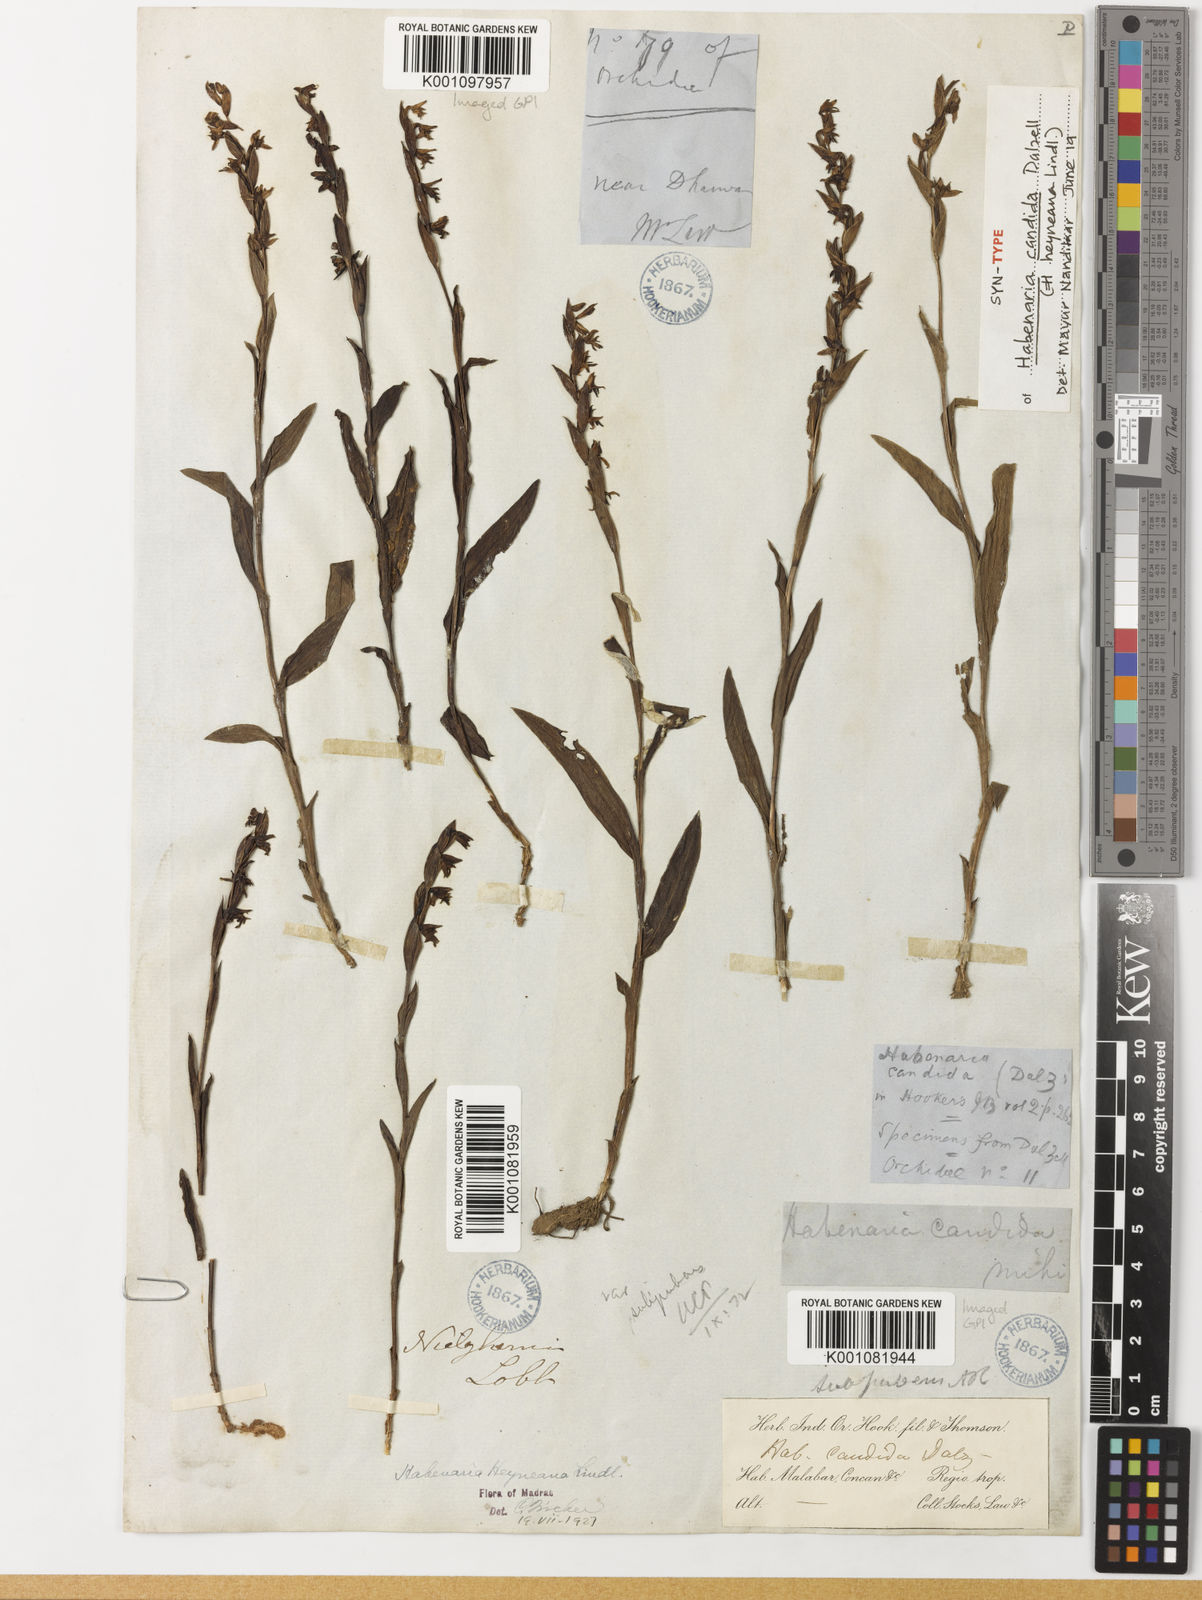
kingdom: Plantae
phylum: Tracheophyta
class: Liliopsida
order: Asparagales
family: Orchidaceae
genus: Habenaria
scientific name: Habenaria heyneana
